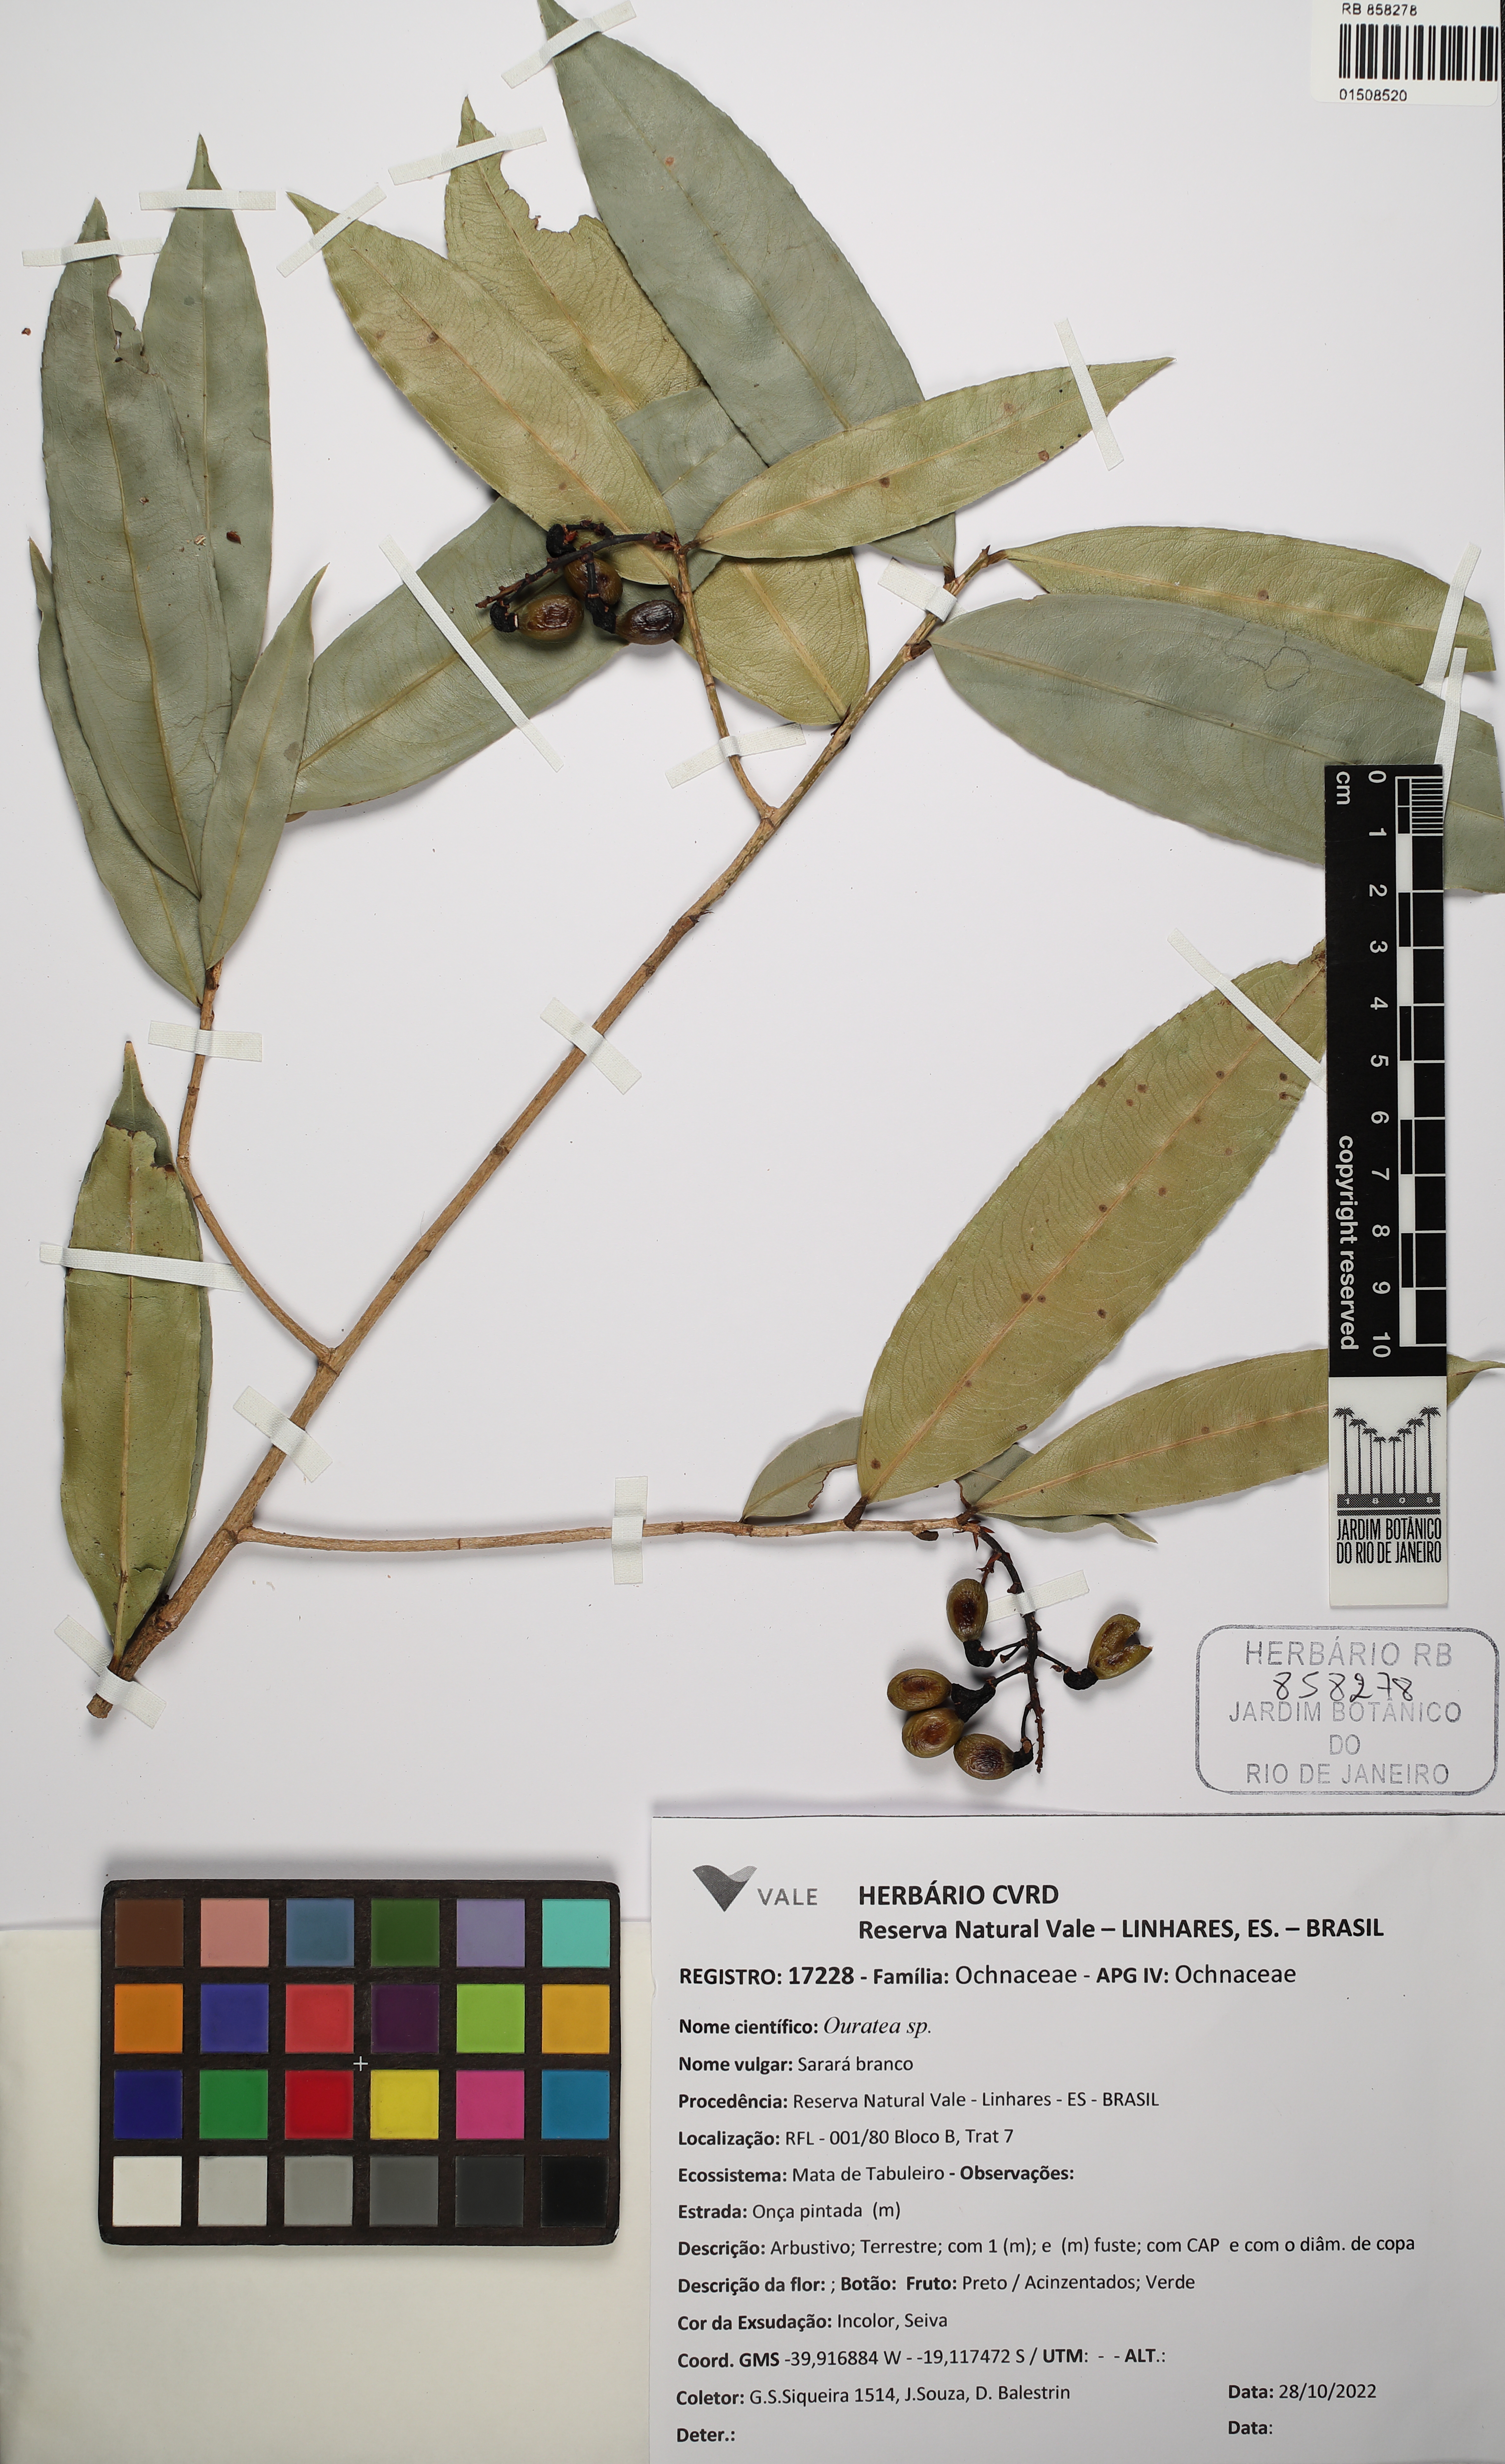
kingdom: Plantae
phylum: Tracheophyta
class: Magnoliopsida
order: Malpighiales
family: Ochnaceae
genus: Ouratea
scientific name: Ouratea
